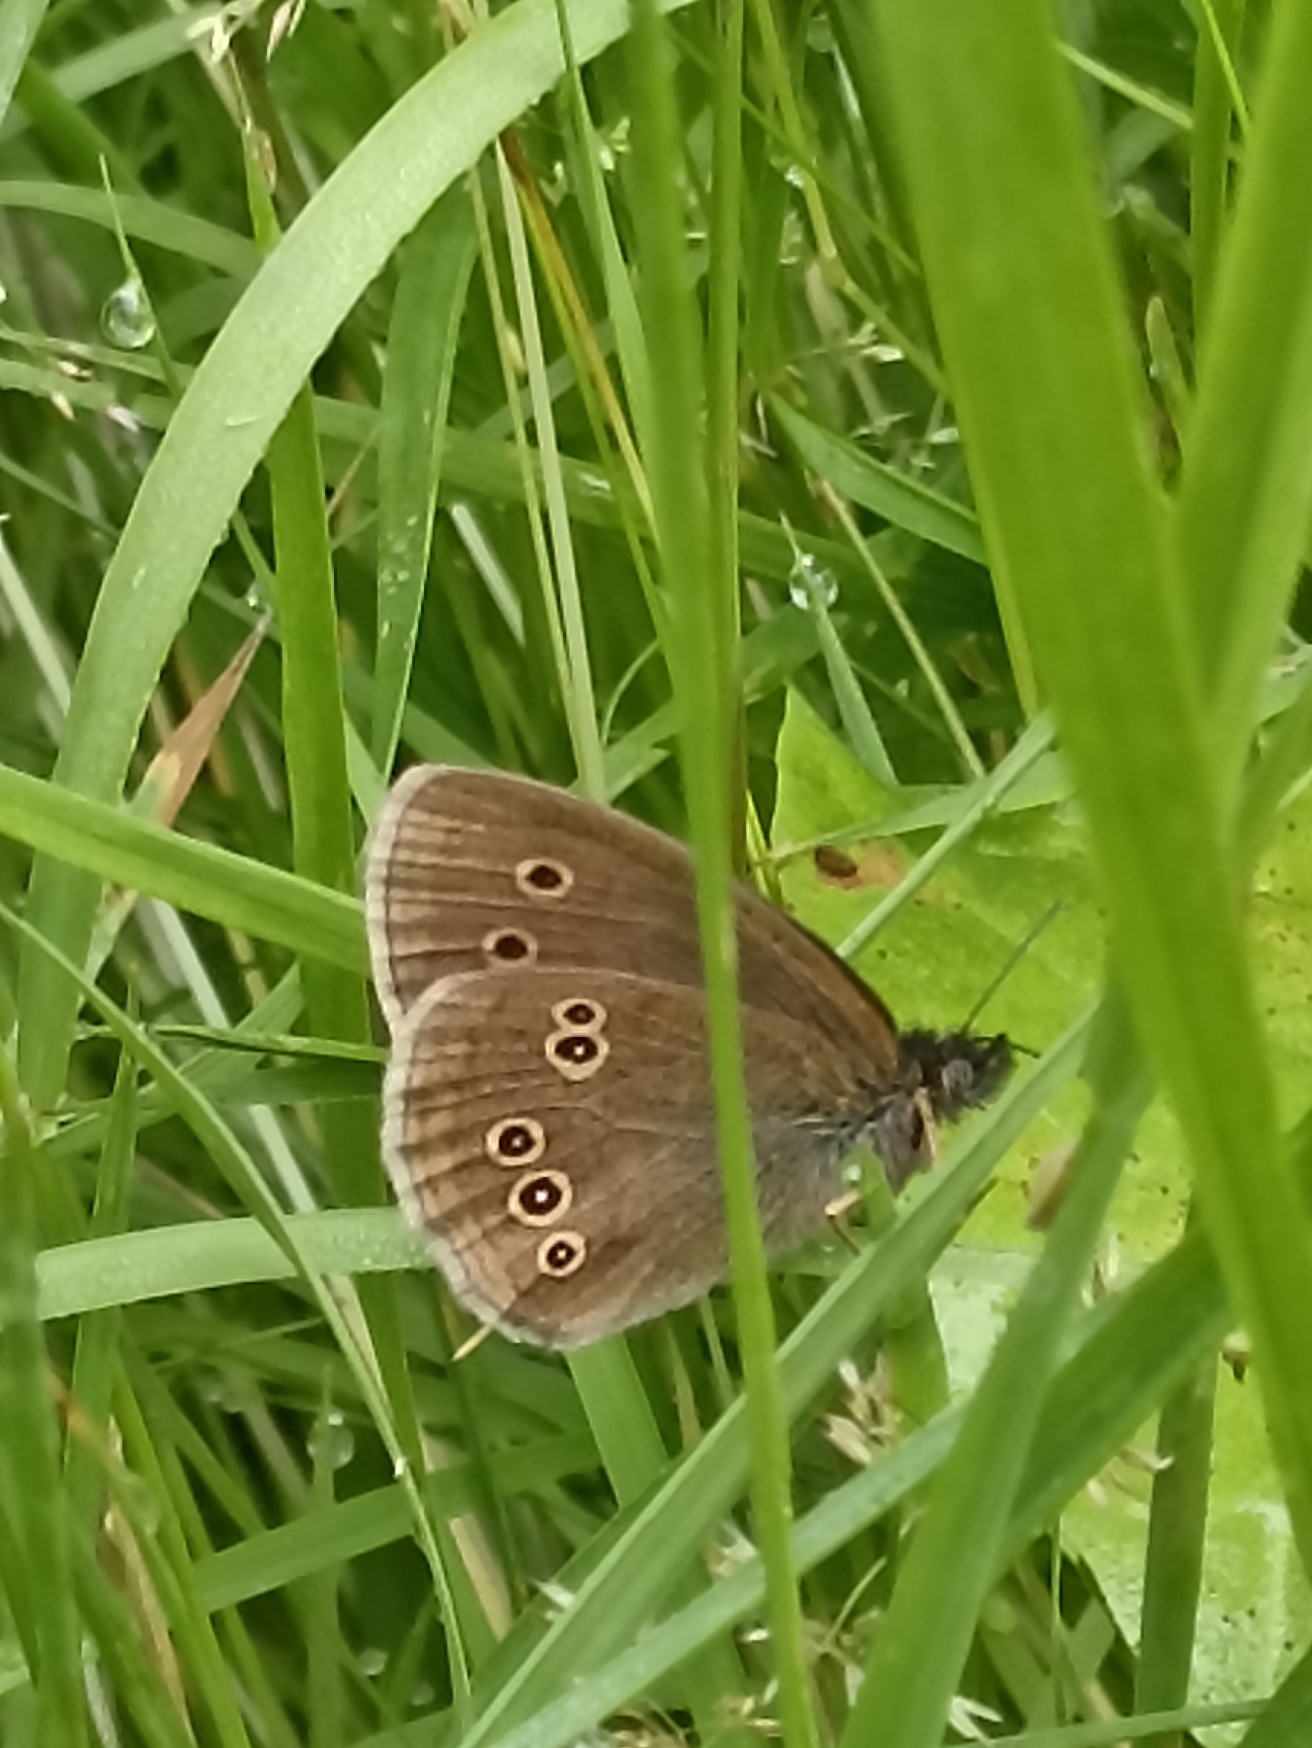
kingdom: Animalia
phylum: Arthropoda
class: Insecta
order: Lepidoptera
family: Nymphalidae
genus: Aphantopus
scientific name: Aphantopus hyperantus
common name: Engrandøje
